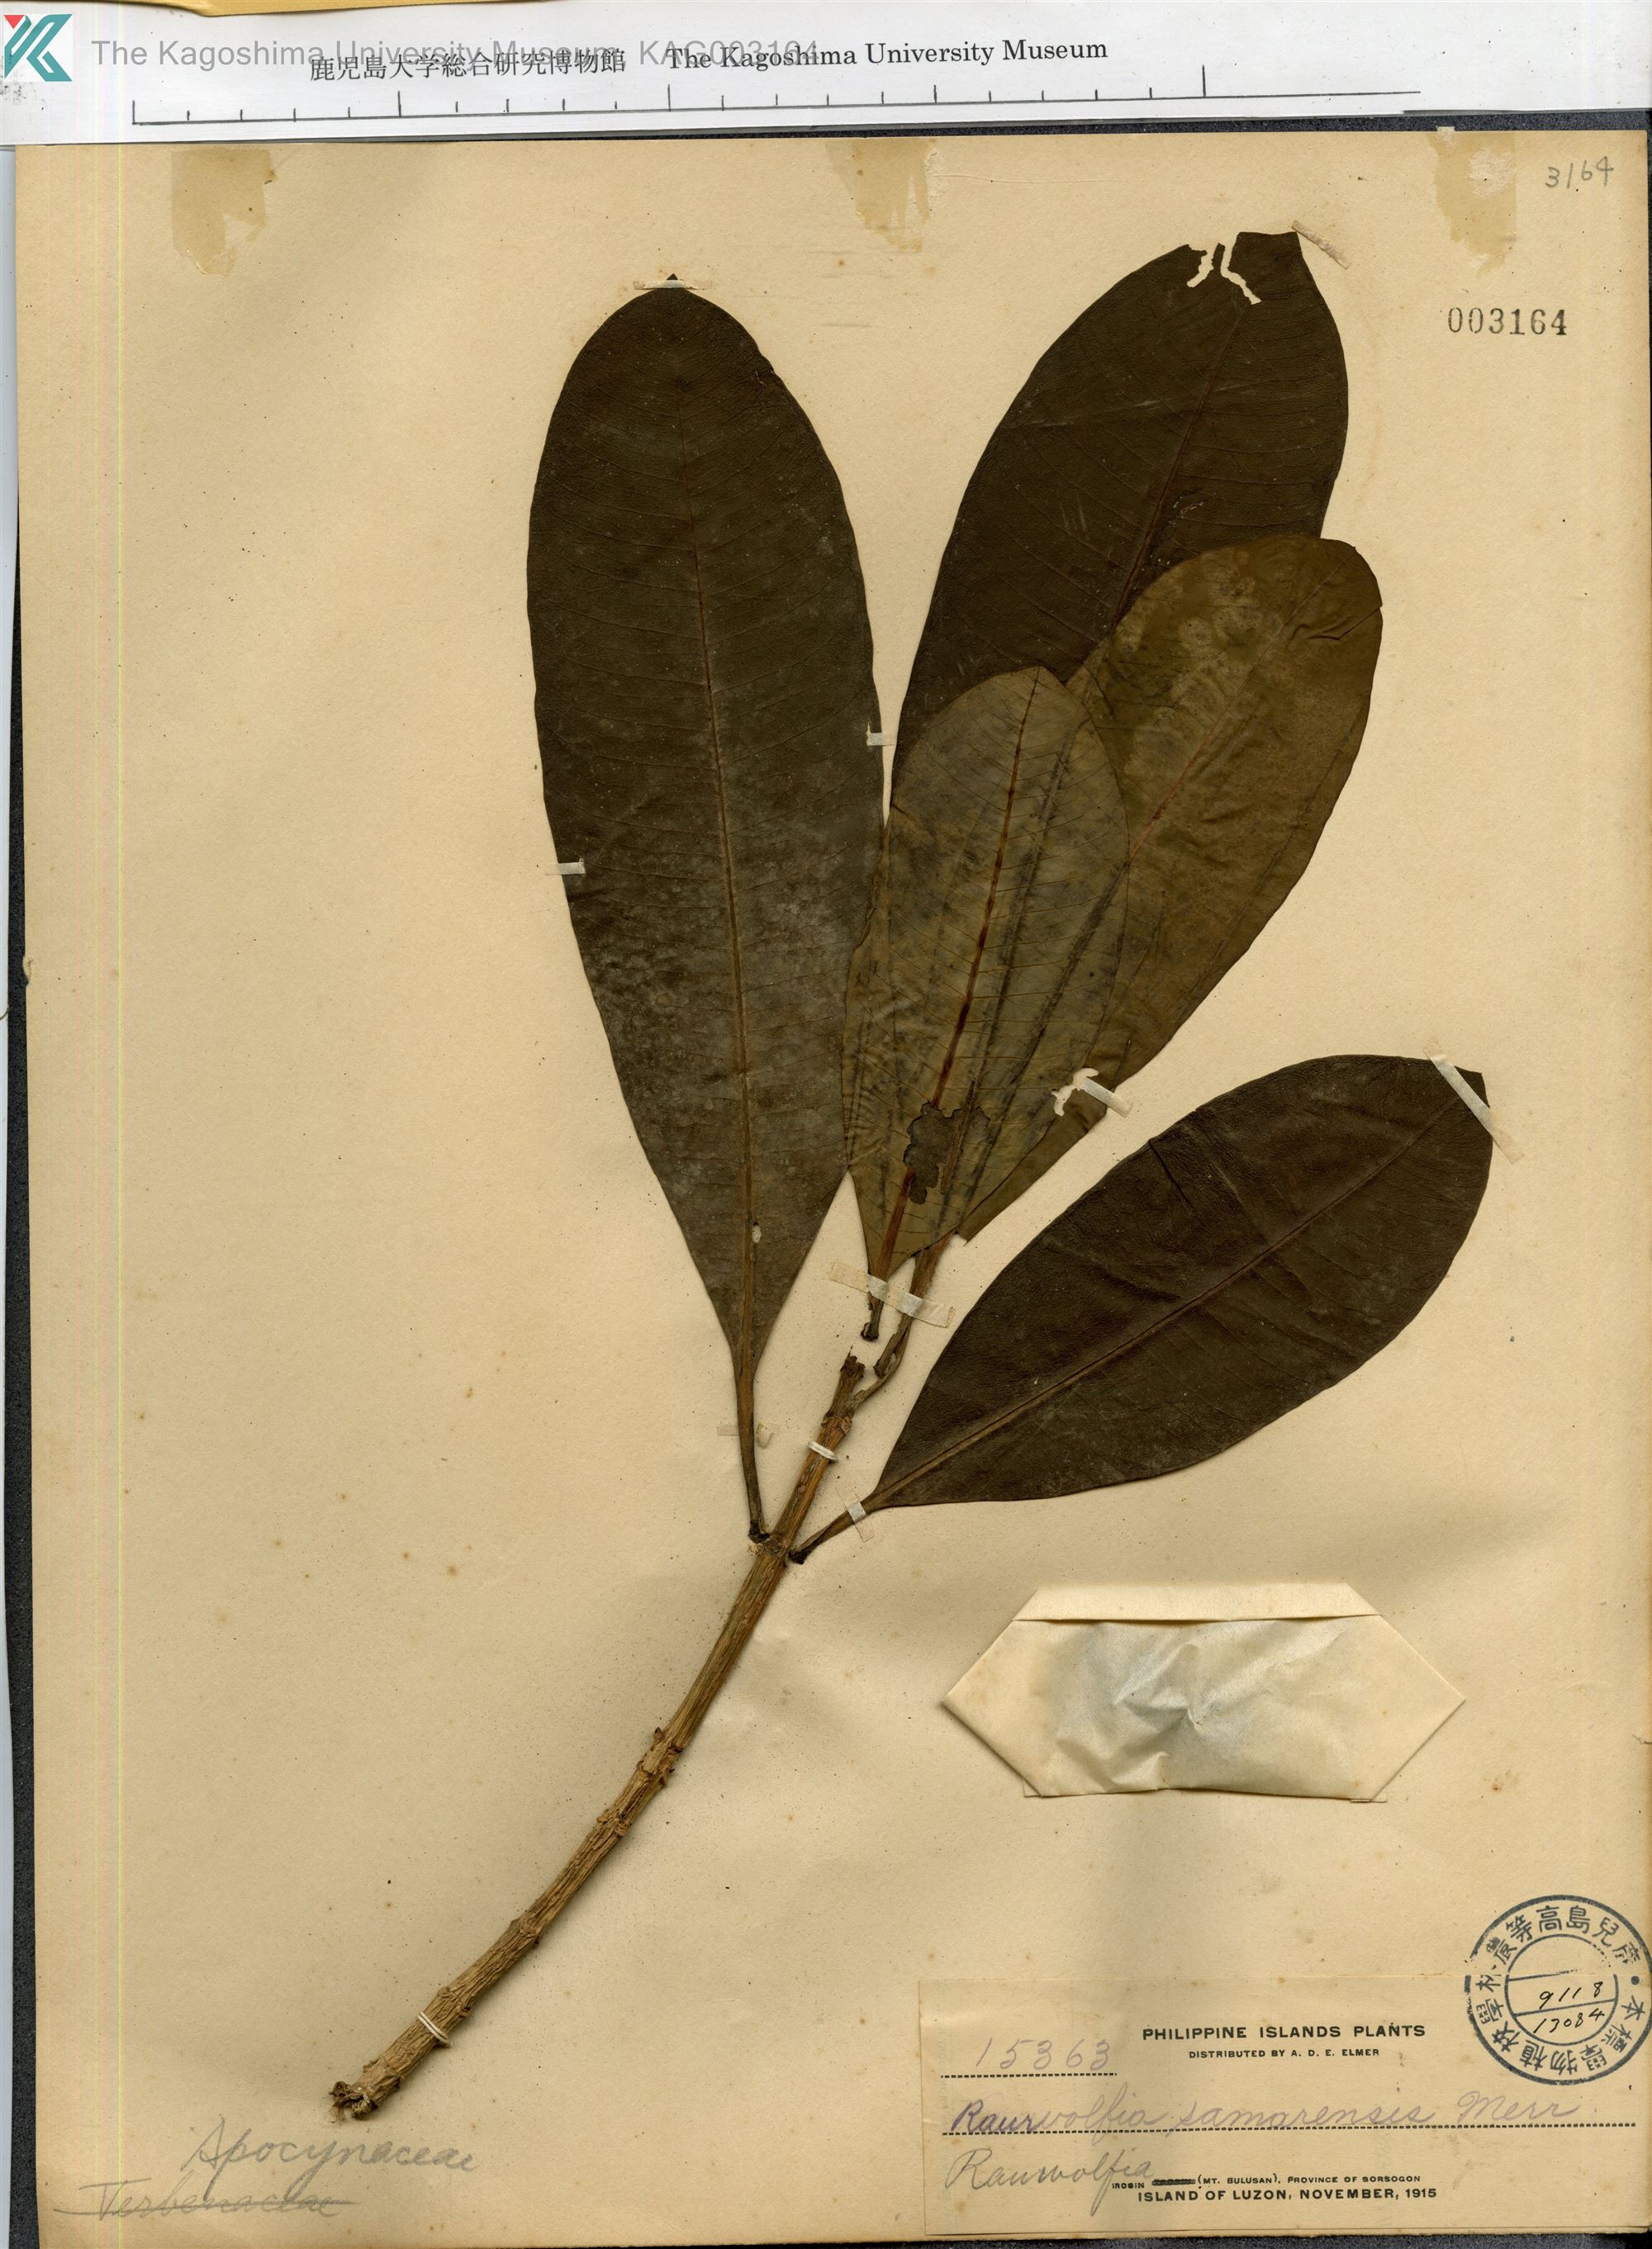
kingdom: Plantae
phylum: Tracheophyta
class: Magnoliopsida
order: Gentianales
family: Apocynaceae
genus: Rauvolfia
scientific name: Rauvolfia
